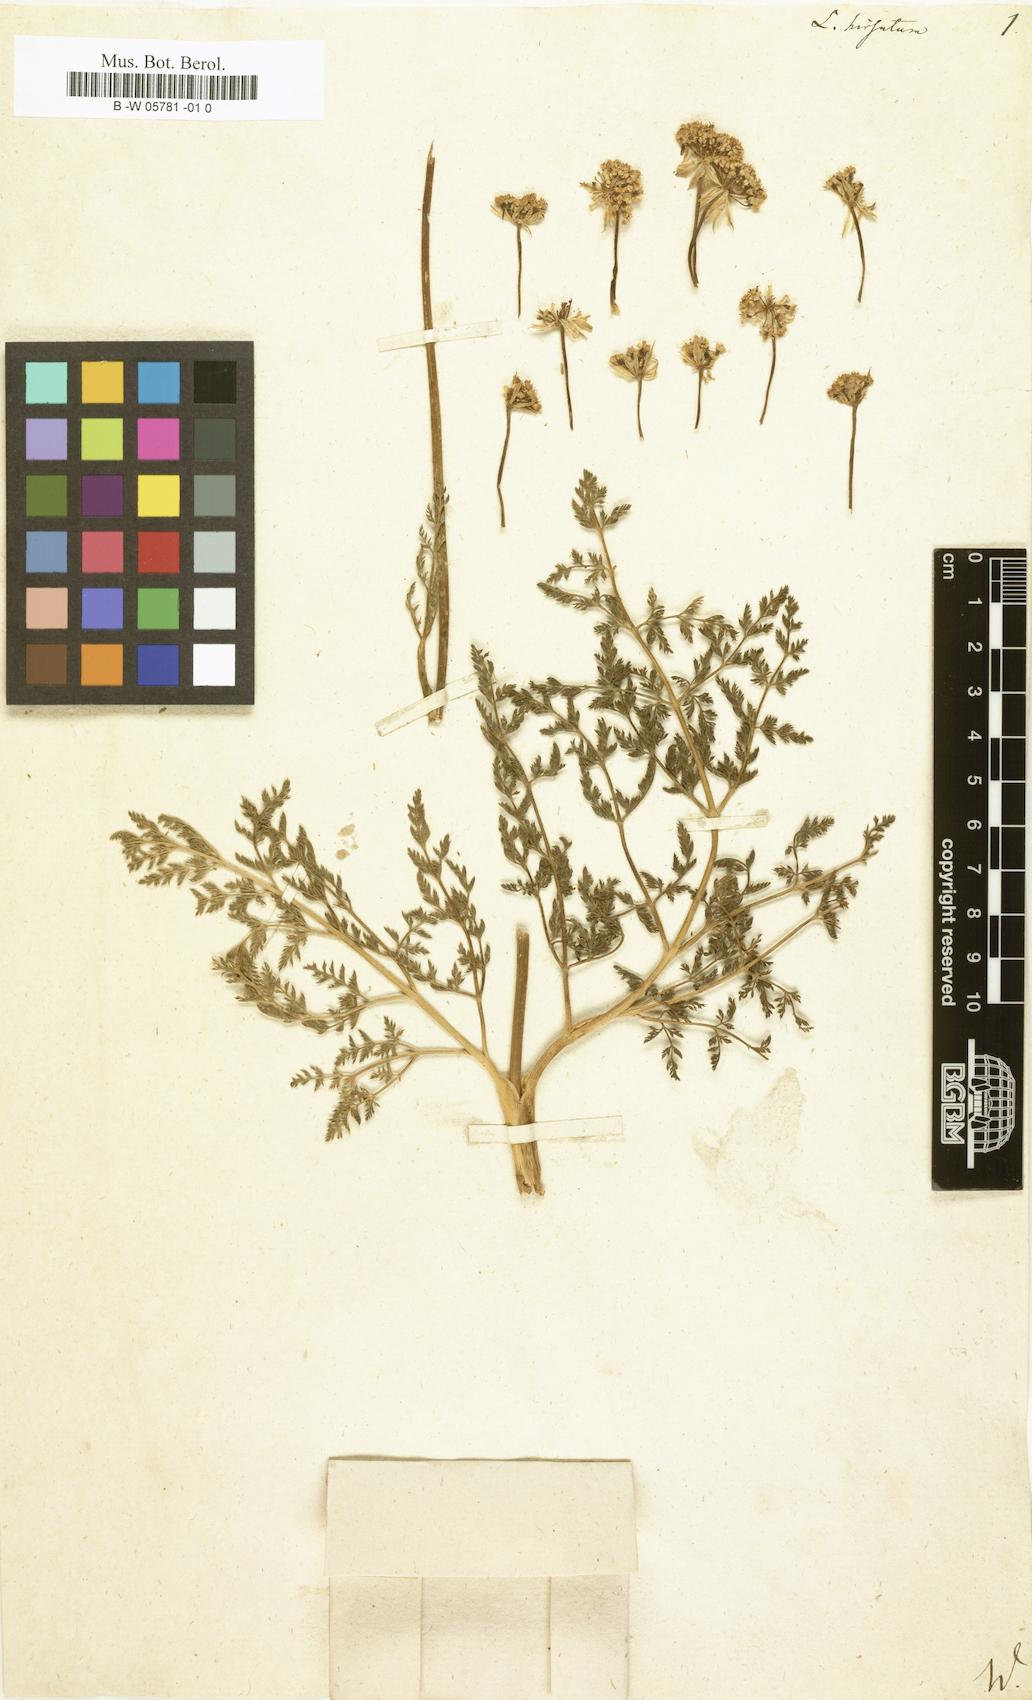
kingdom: Plantae
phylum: Tracheophyta
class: Magnoliopsida
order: Apiales
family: Apiaceae
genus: Laserpitium
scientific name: Laserpitium halleri
